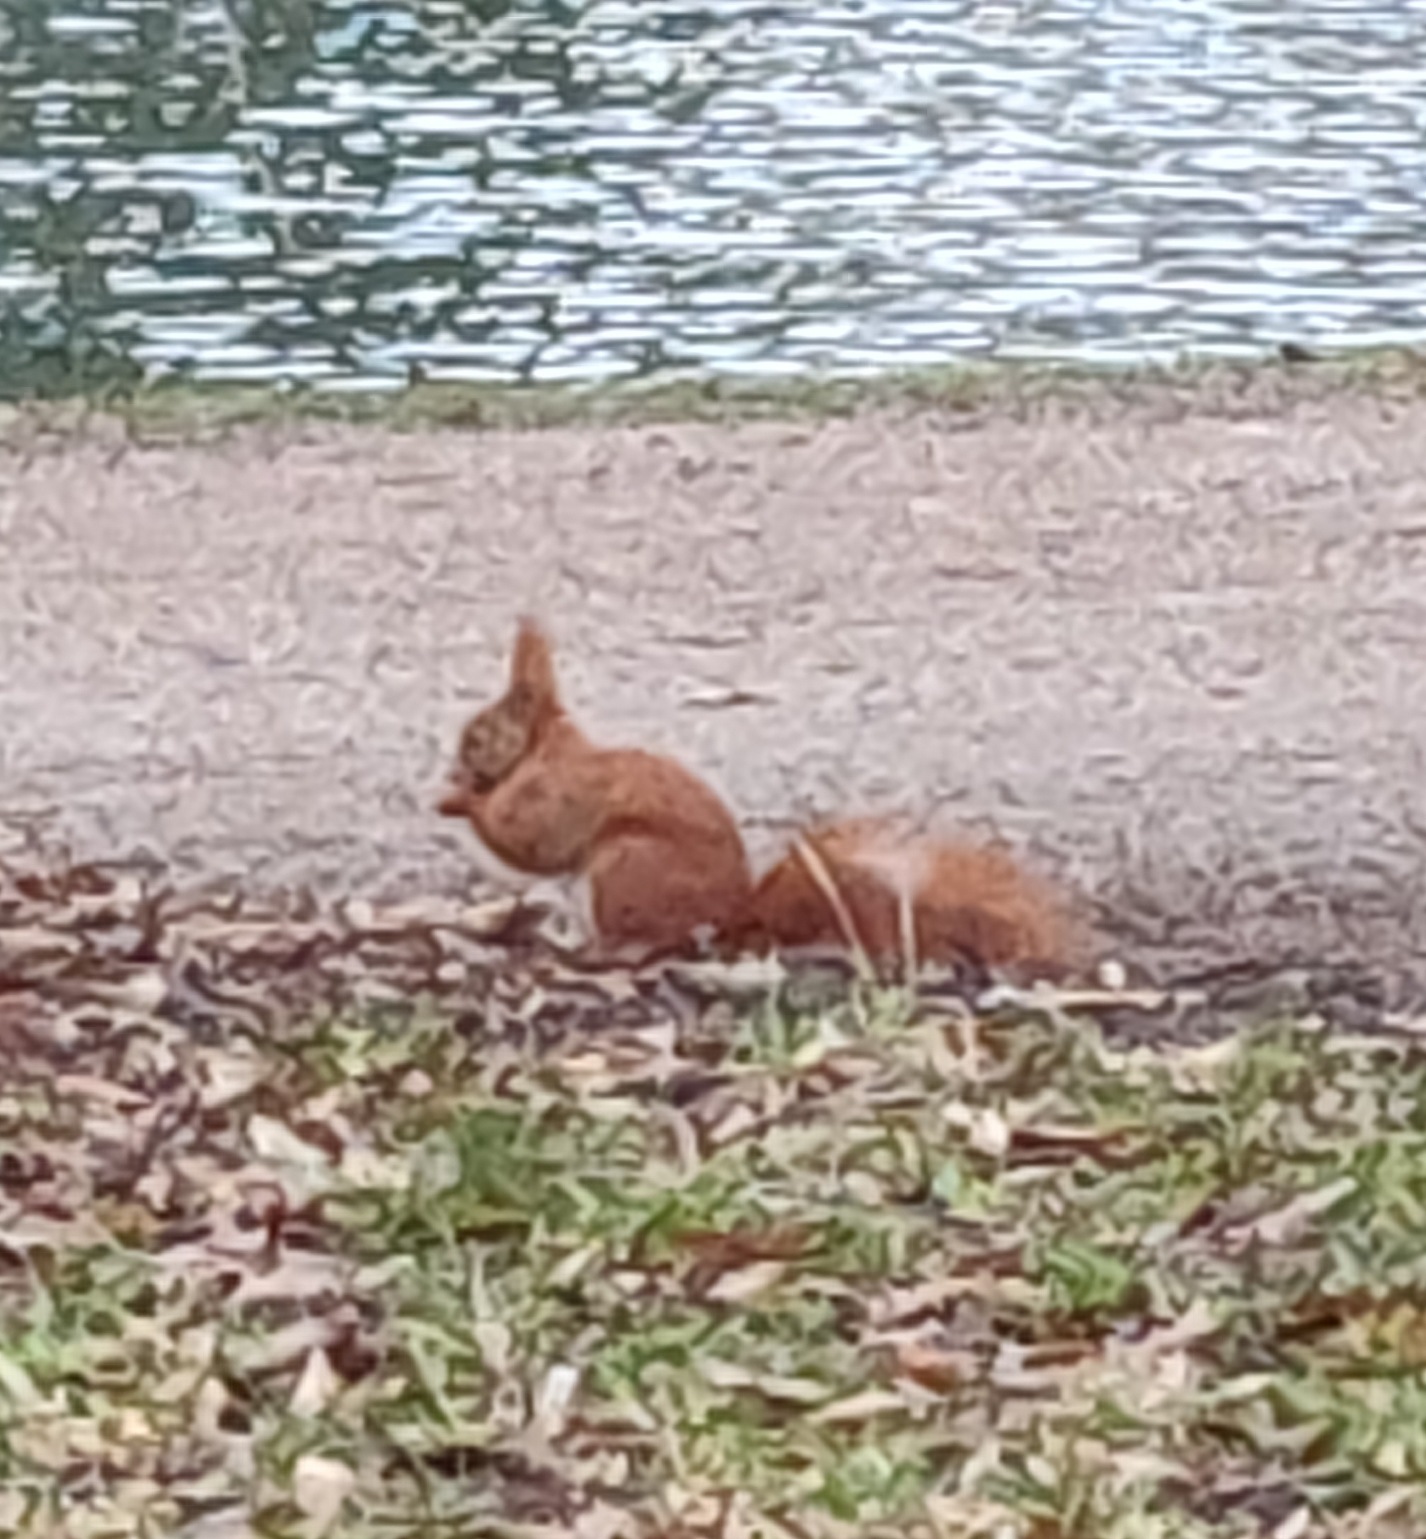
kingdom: Animalia
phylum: Chordata
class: Mammalia
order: Rodentia
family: Sciuridae
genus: Sciurus
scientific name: Sciurus vulgaris
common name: Egern
